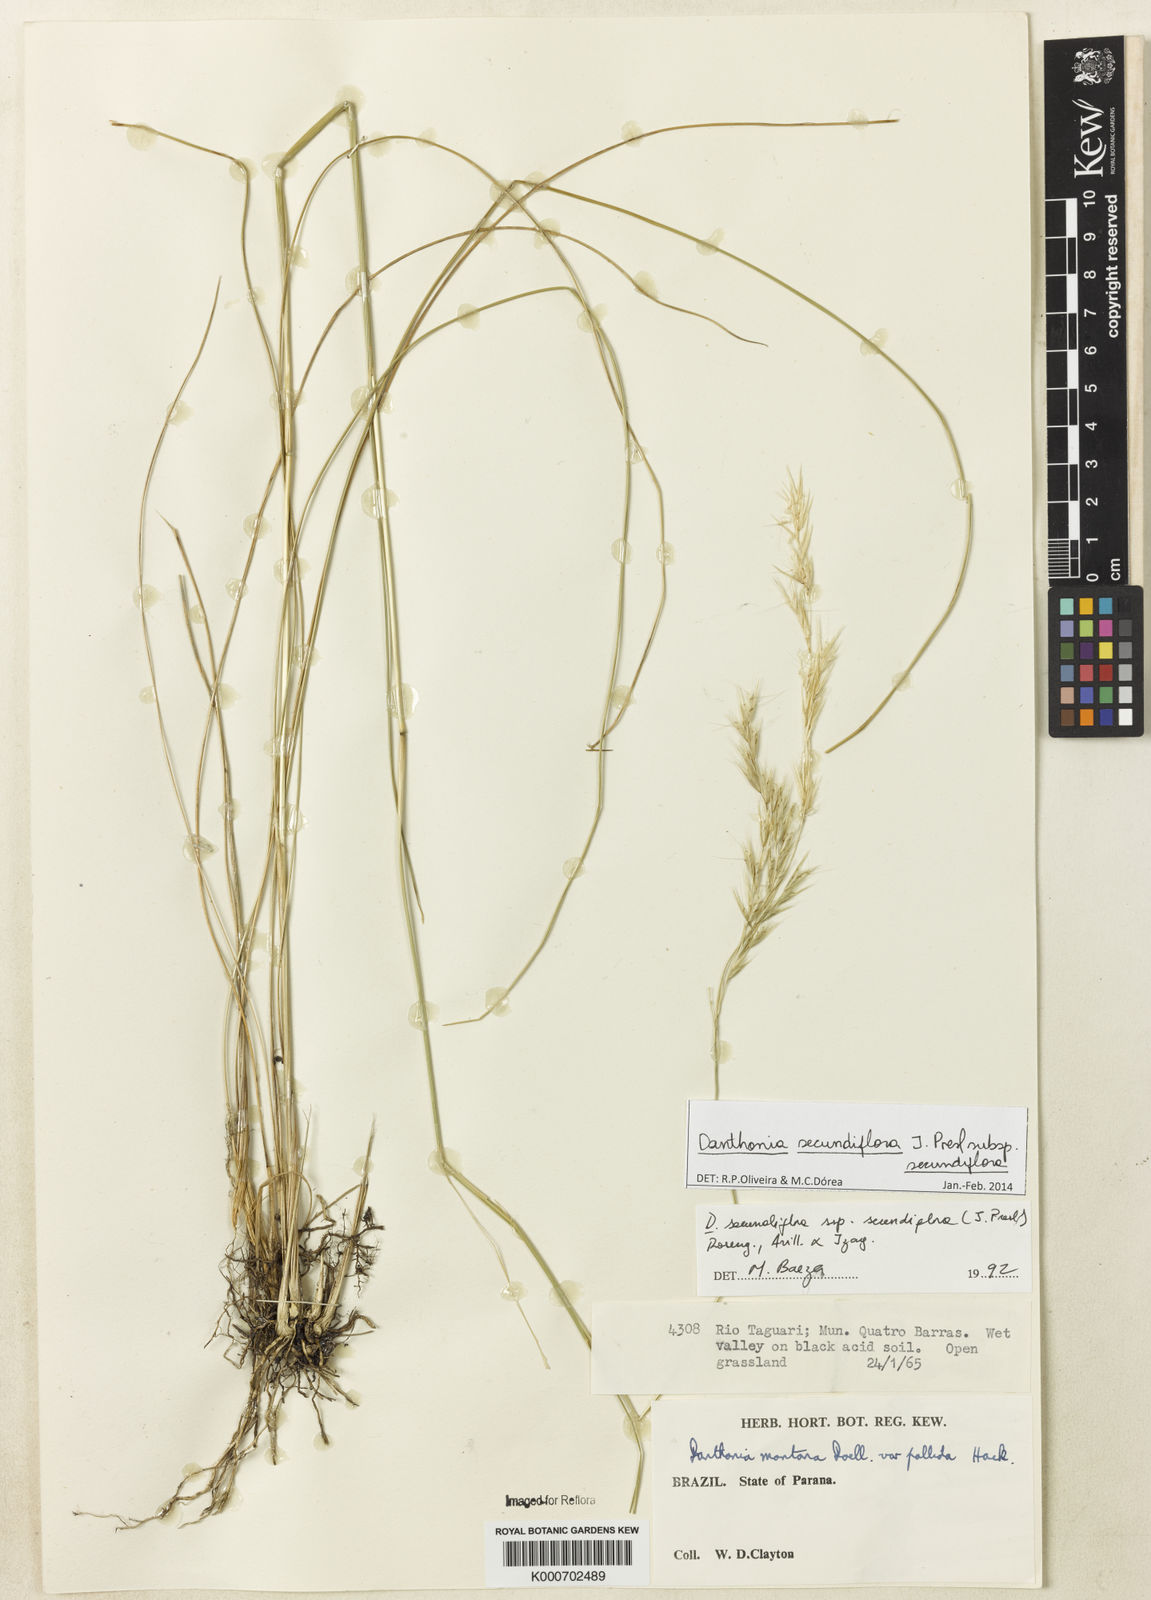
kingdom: Plantae
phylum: Tracheophyta
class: Liliopsida
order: Poales
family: Poaceae
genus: Danthonia
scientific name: Danthonia secundiflora
